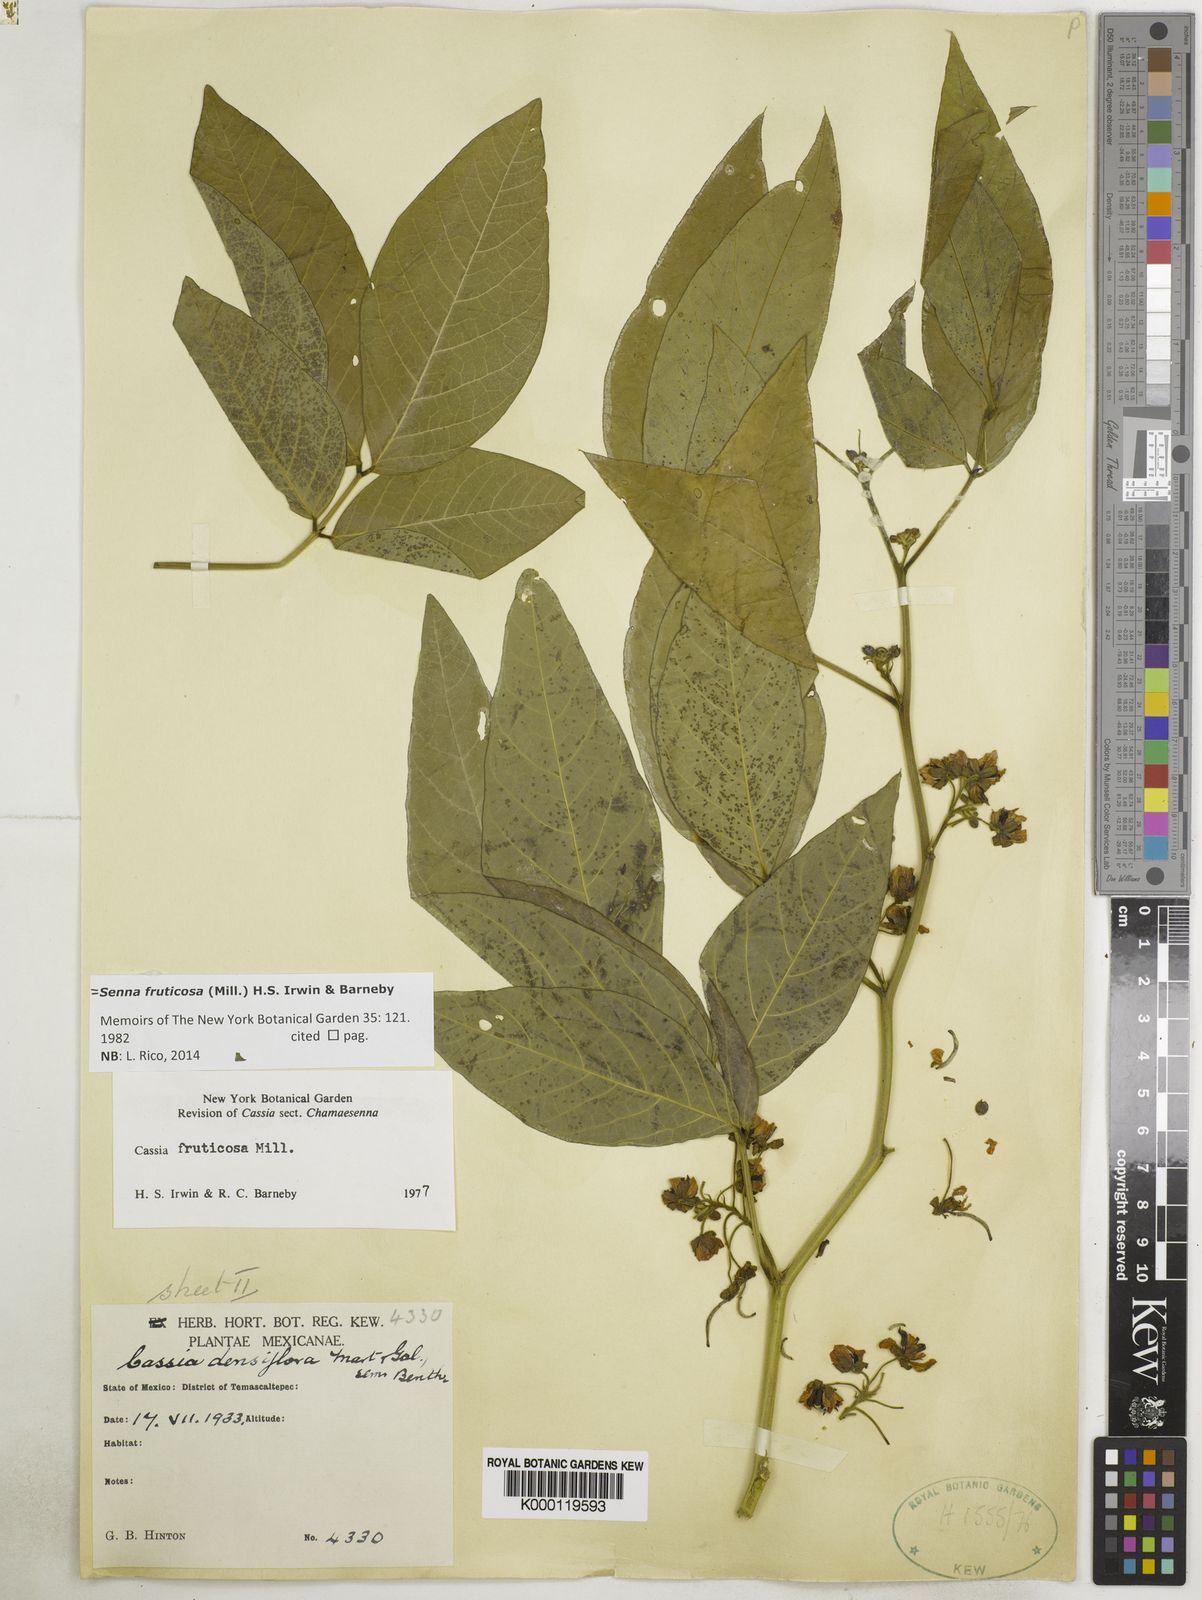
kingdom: Plantae
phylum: Tracheophyta
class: Magnoliopsida
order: Fabales
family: Fabaceae
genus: Senna
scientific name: Senna fruticosa
